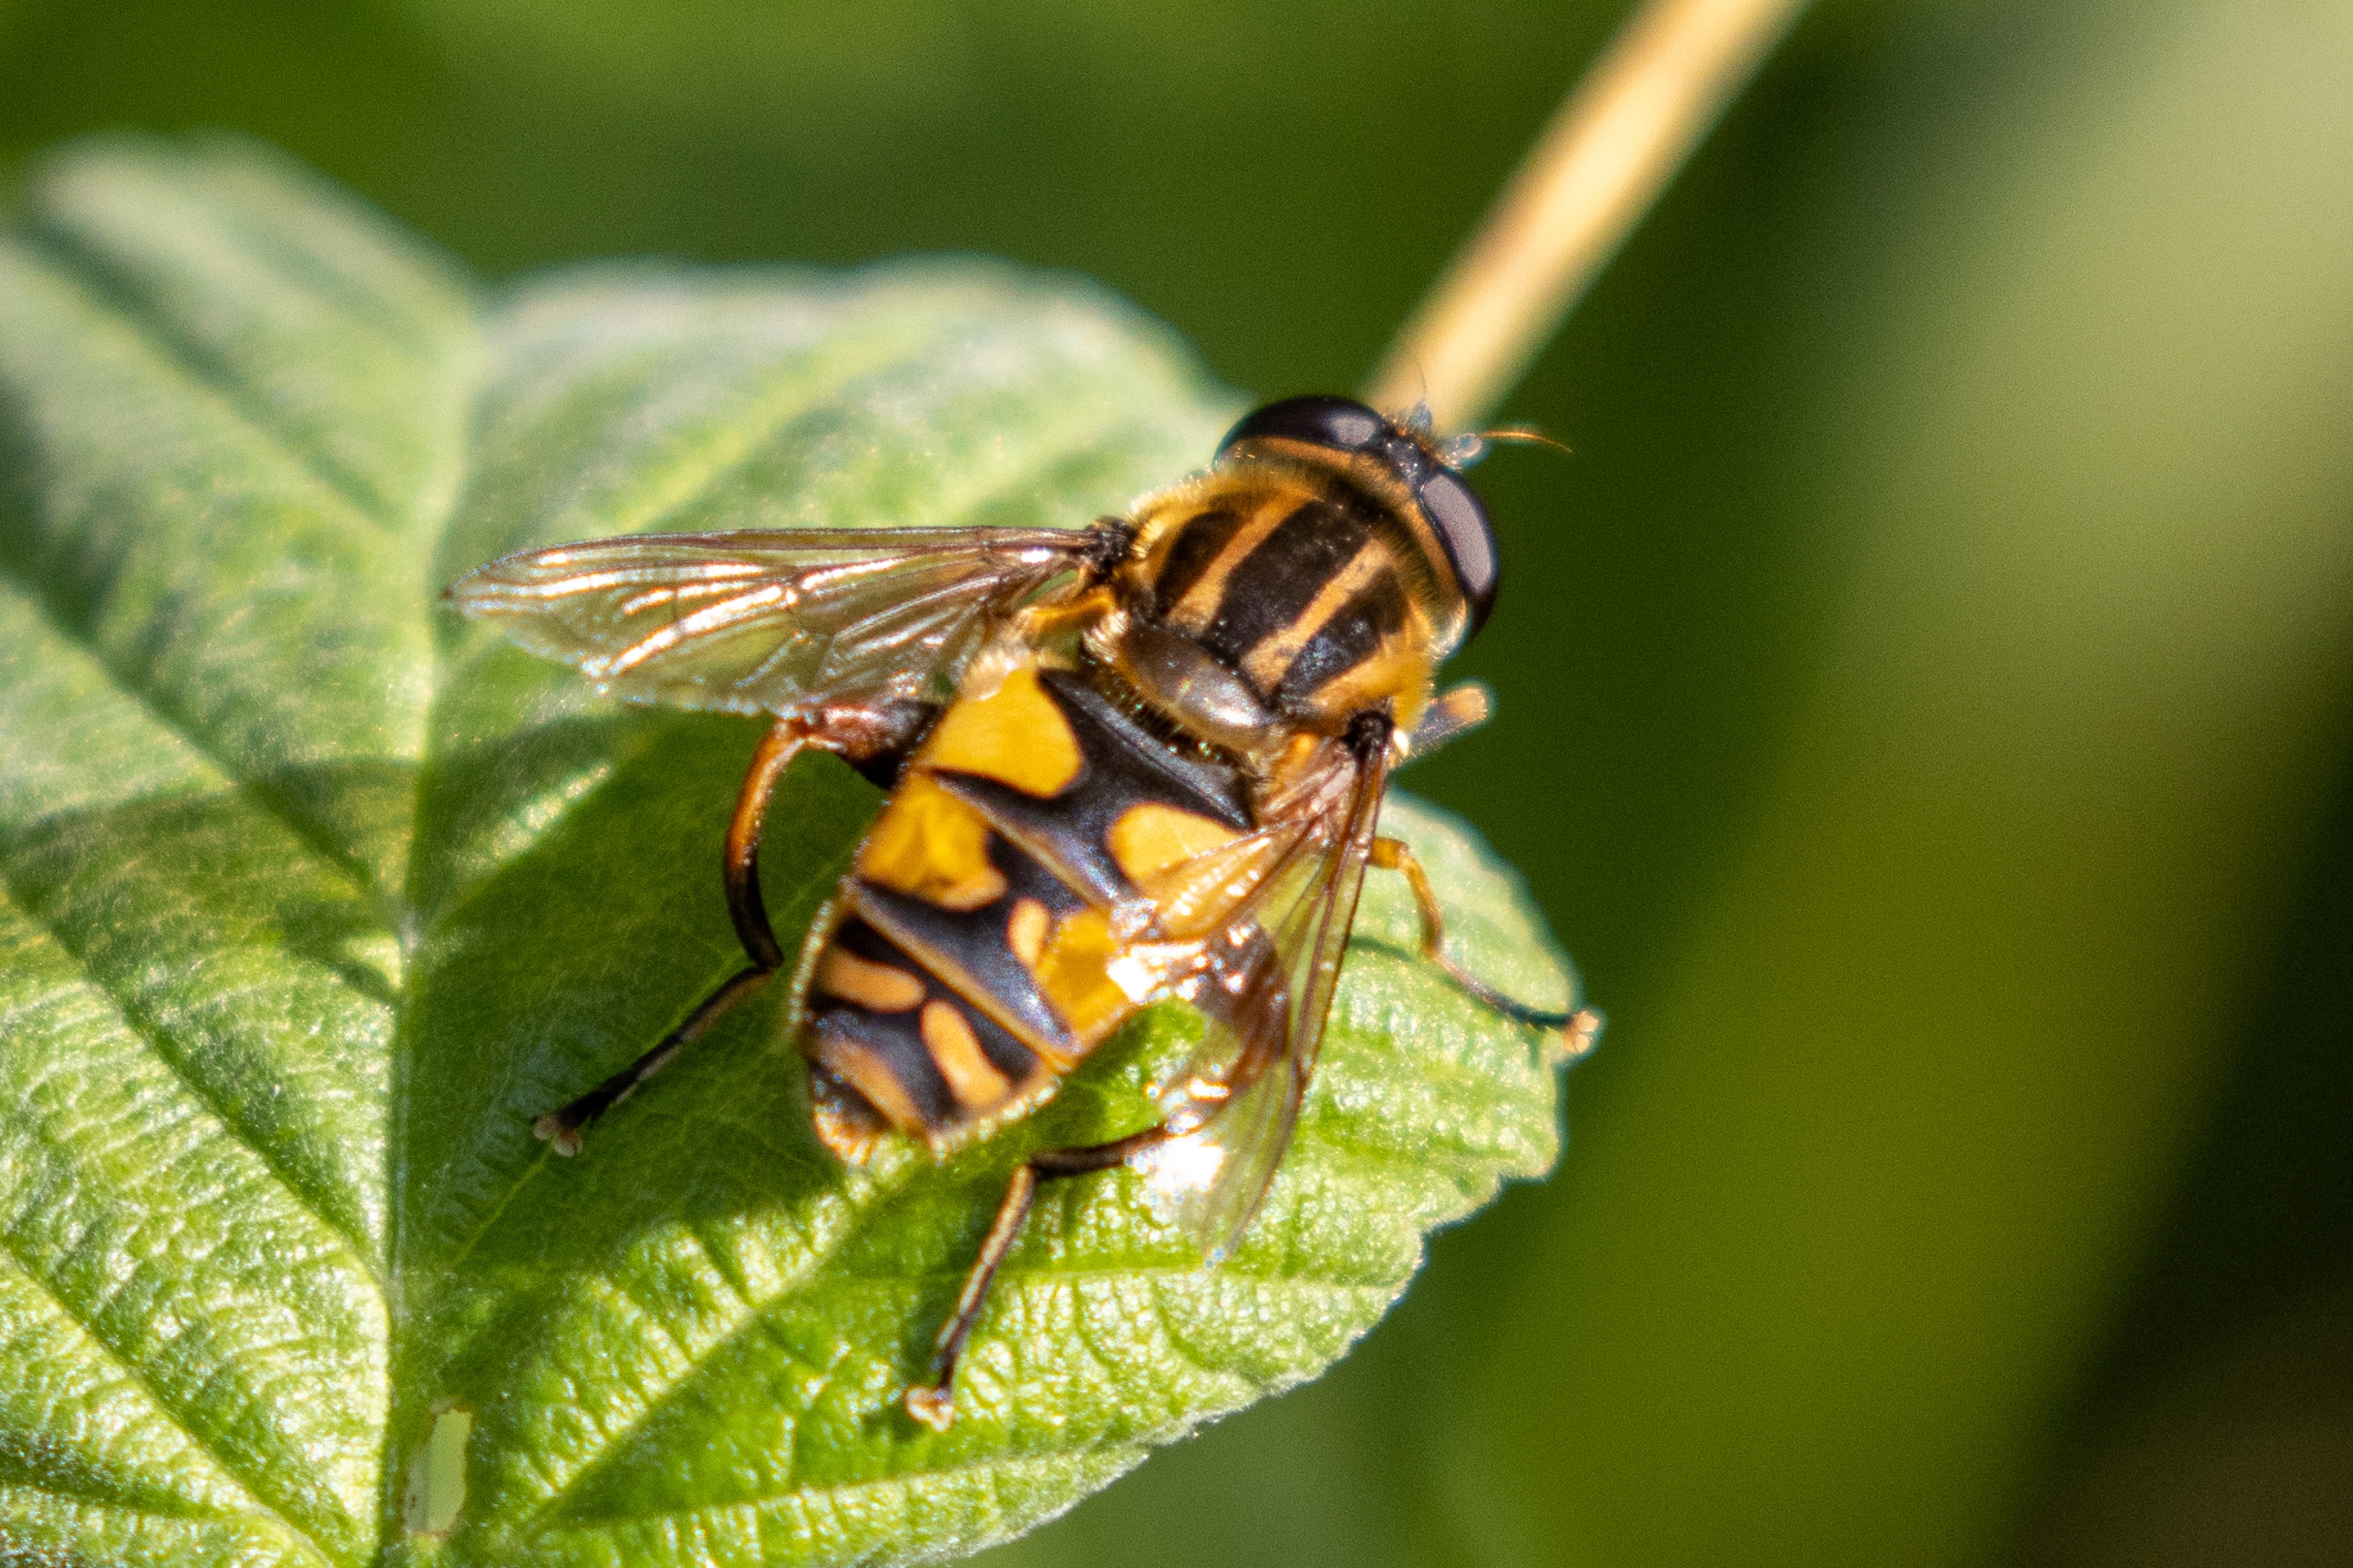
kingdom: Animalia
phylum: Arthropoda
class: Insecta
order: Diptera
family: Syrphidae
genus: Helophilus
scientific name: Helophilus pendulus
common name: Almindelig sumpsvirreflue
